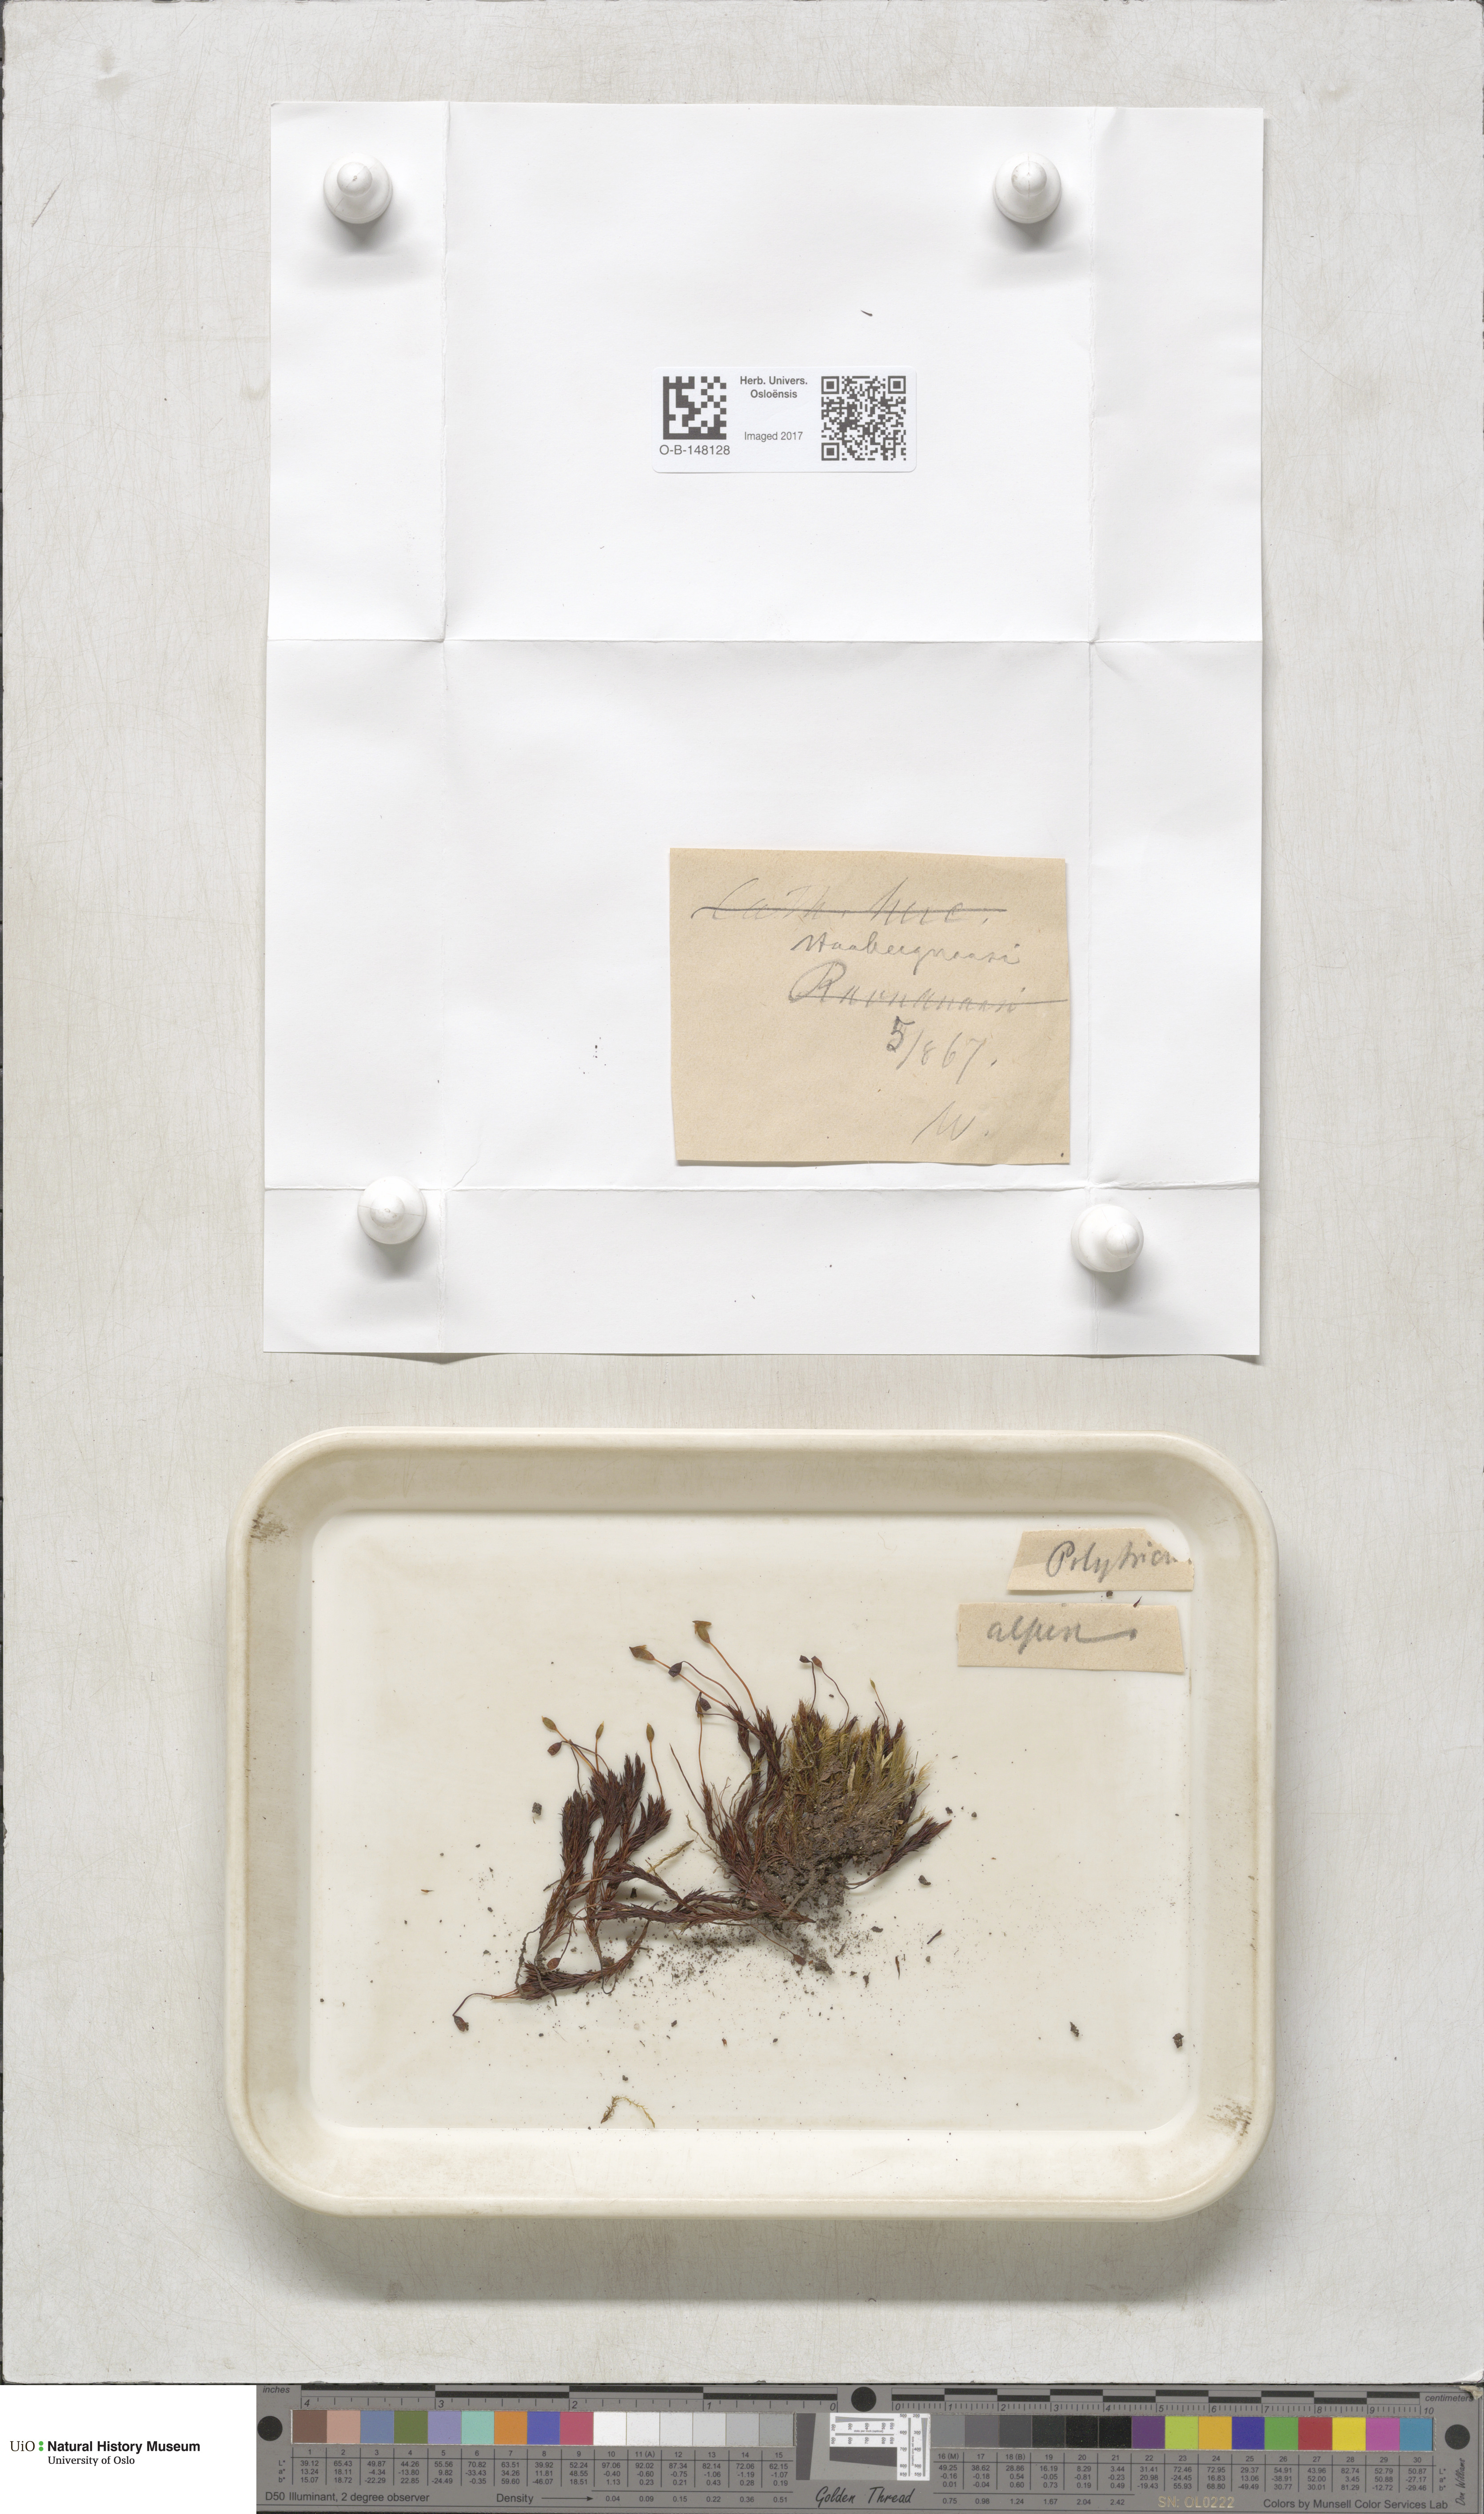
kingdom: Plantae
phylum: Bryophyta
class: Polytrichopsida
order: Polytrichales
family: Polytrichaceae
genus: Polytrichastrum
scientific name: Polytrichastrum alpinum
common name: Alpine haircap
